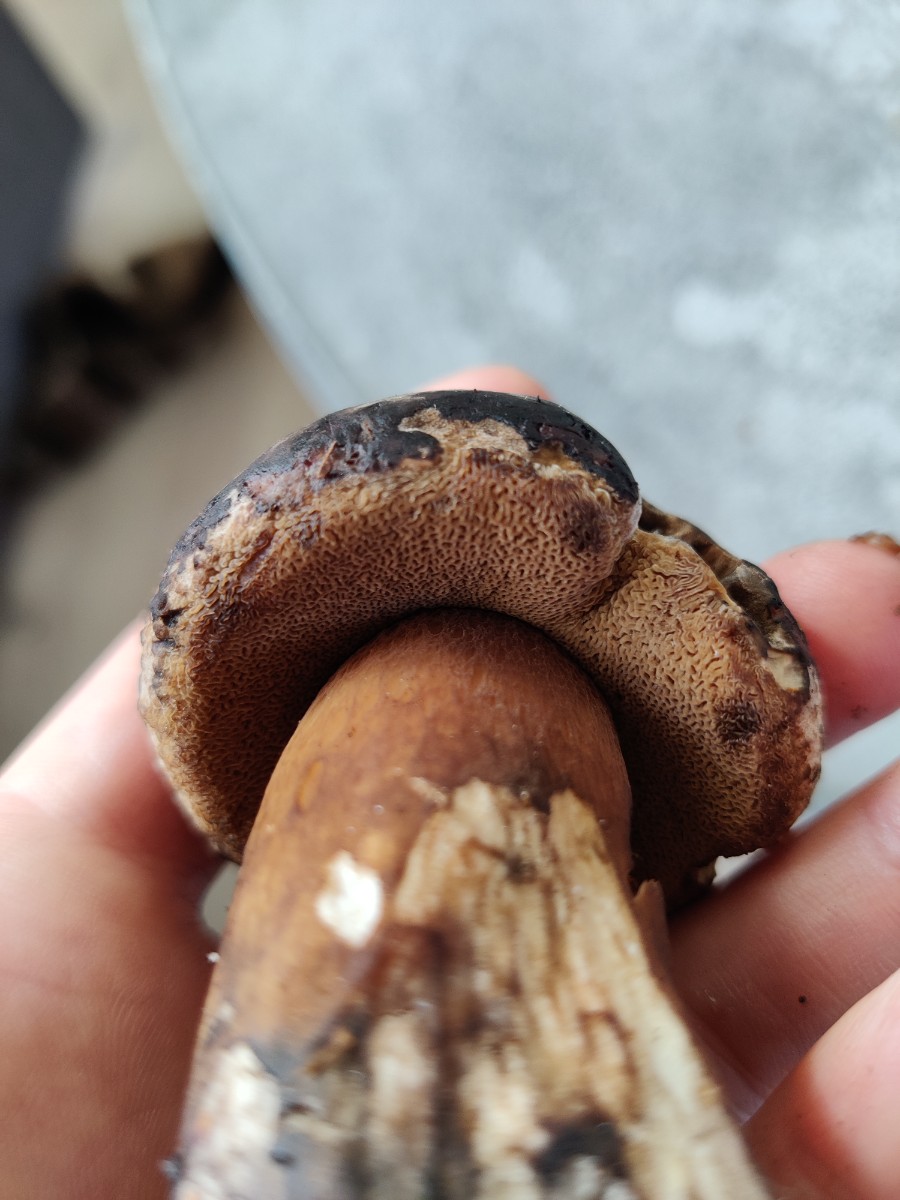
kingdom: Fungi
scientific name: Fungi
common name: bronze-rørhat
